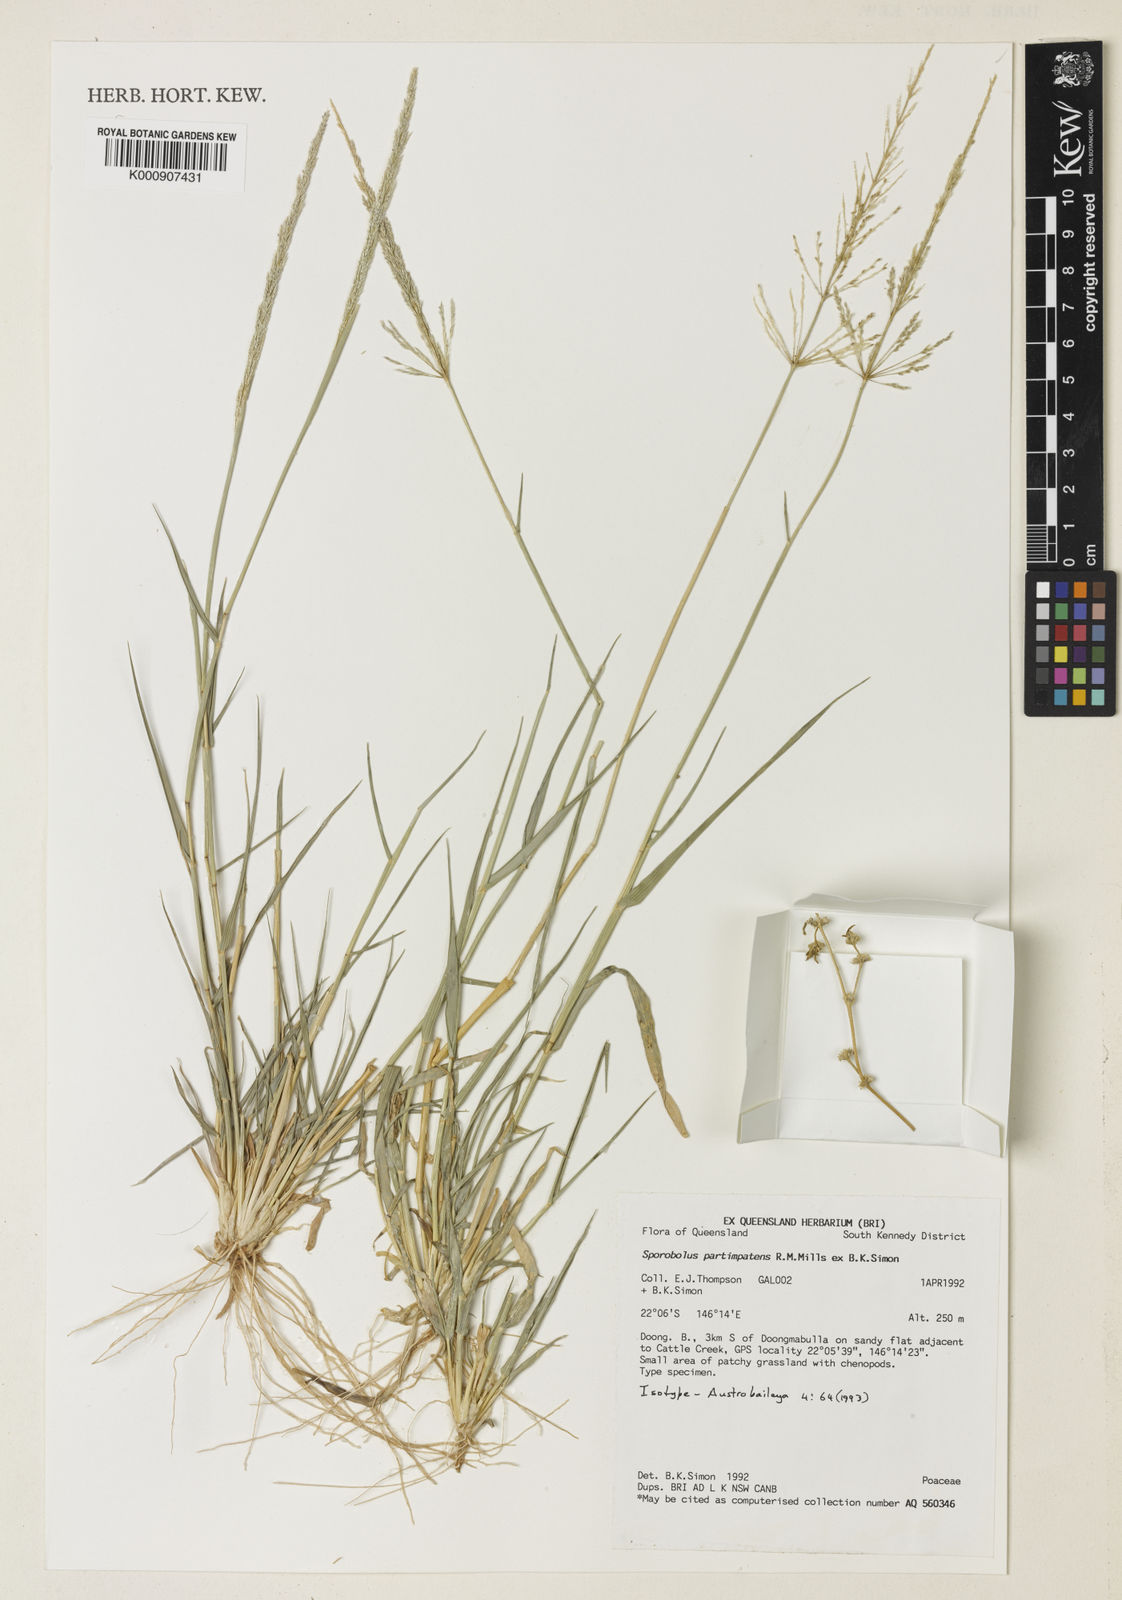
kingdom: Plantae
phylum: Tracheophyta
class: Liliopsida
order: Poales
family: Poaceae
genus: Sporobolus
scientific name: Sporobolus partimpatens
